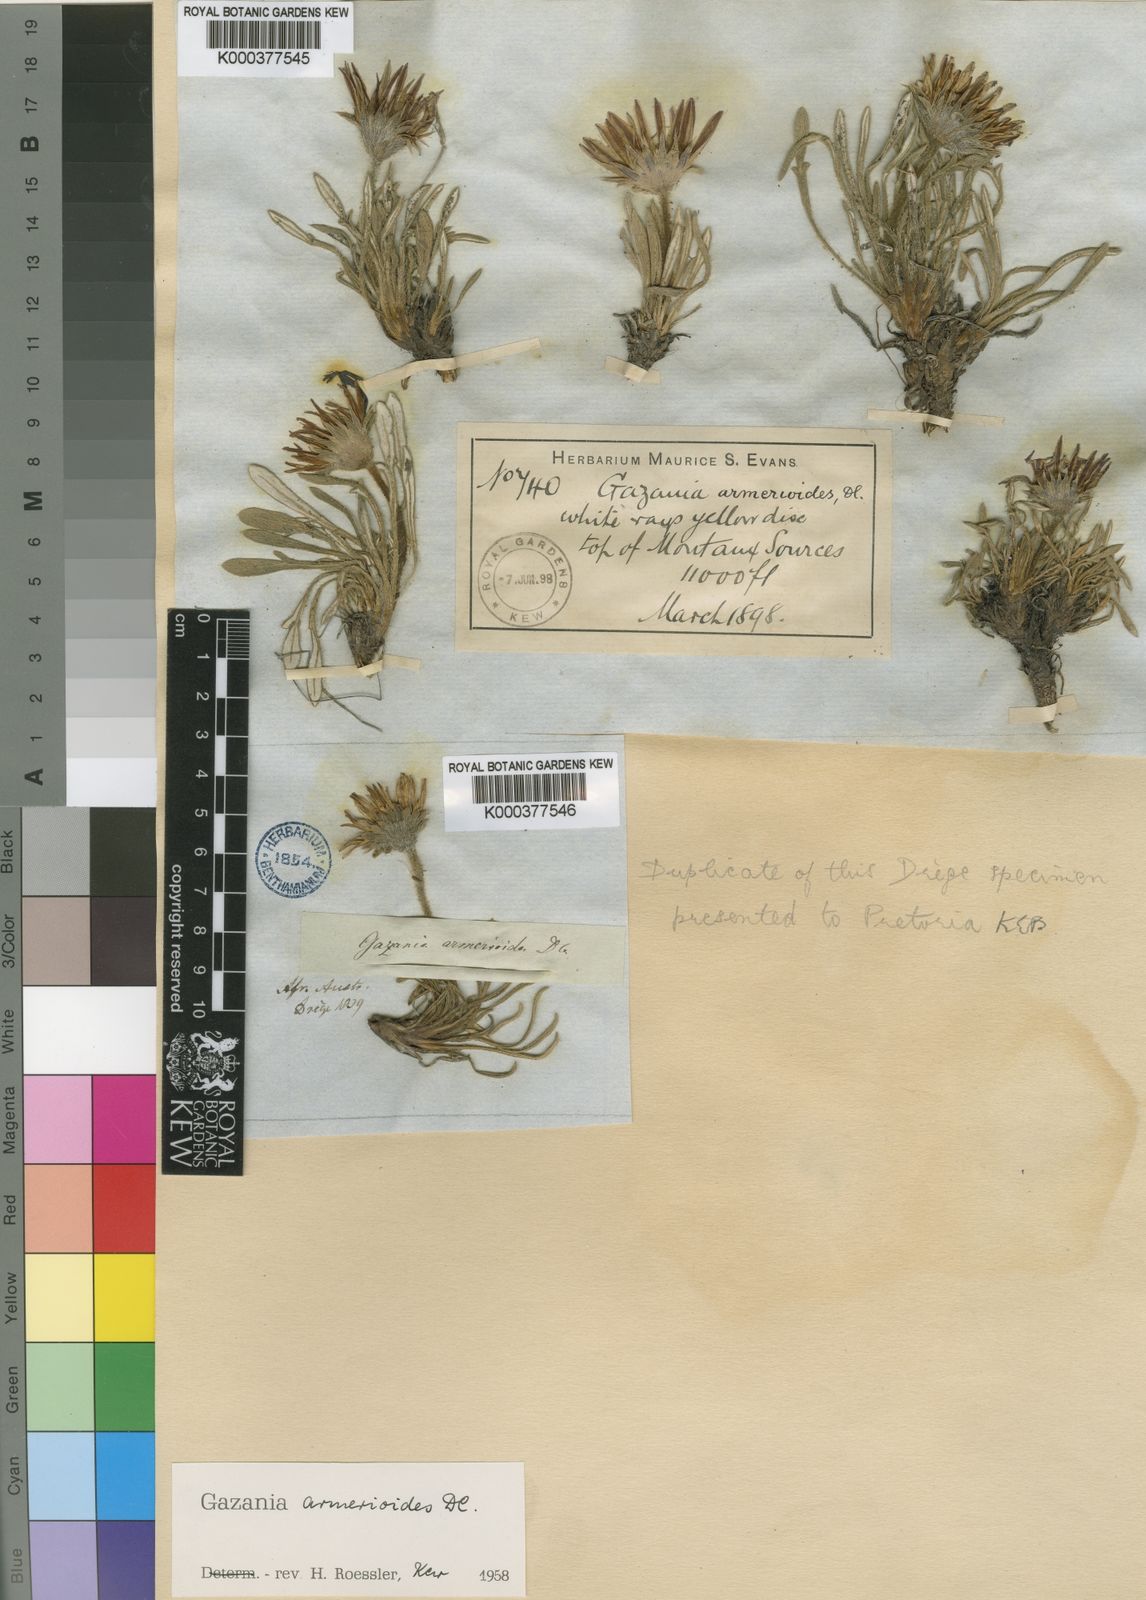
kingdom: Plantae
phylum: Tracheophyta
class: Magnoliopsida
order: Asterales
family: Asteraceae
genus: Roessleria
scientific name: Roessleria armerioides
